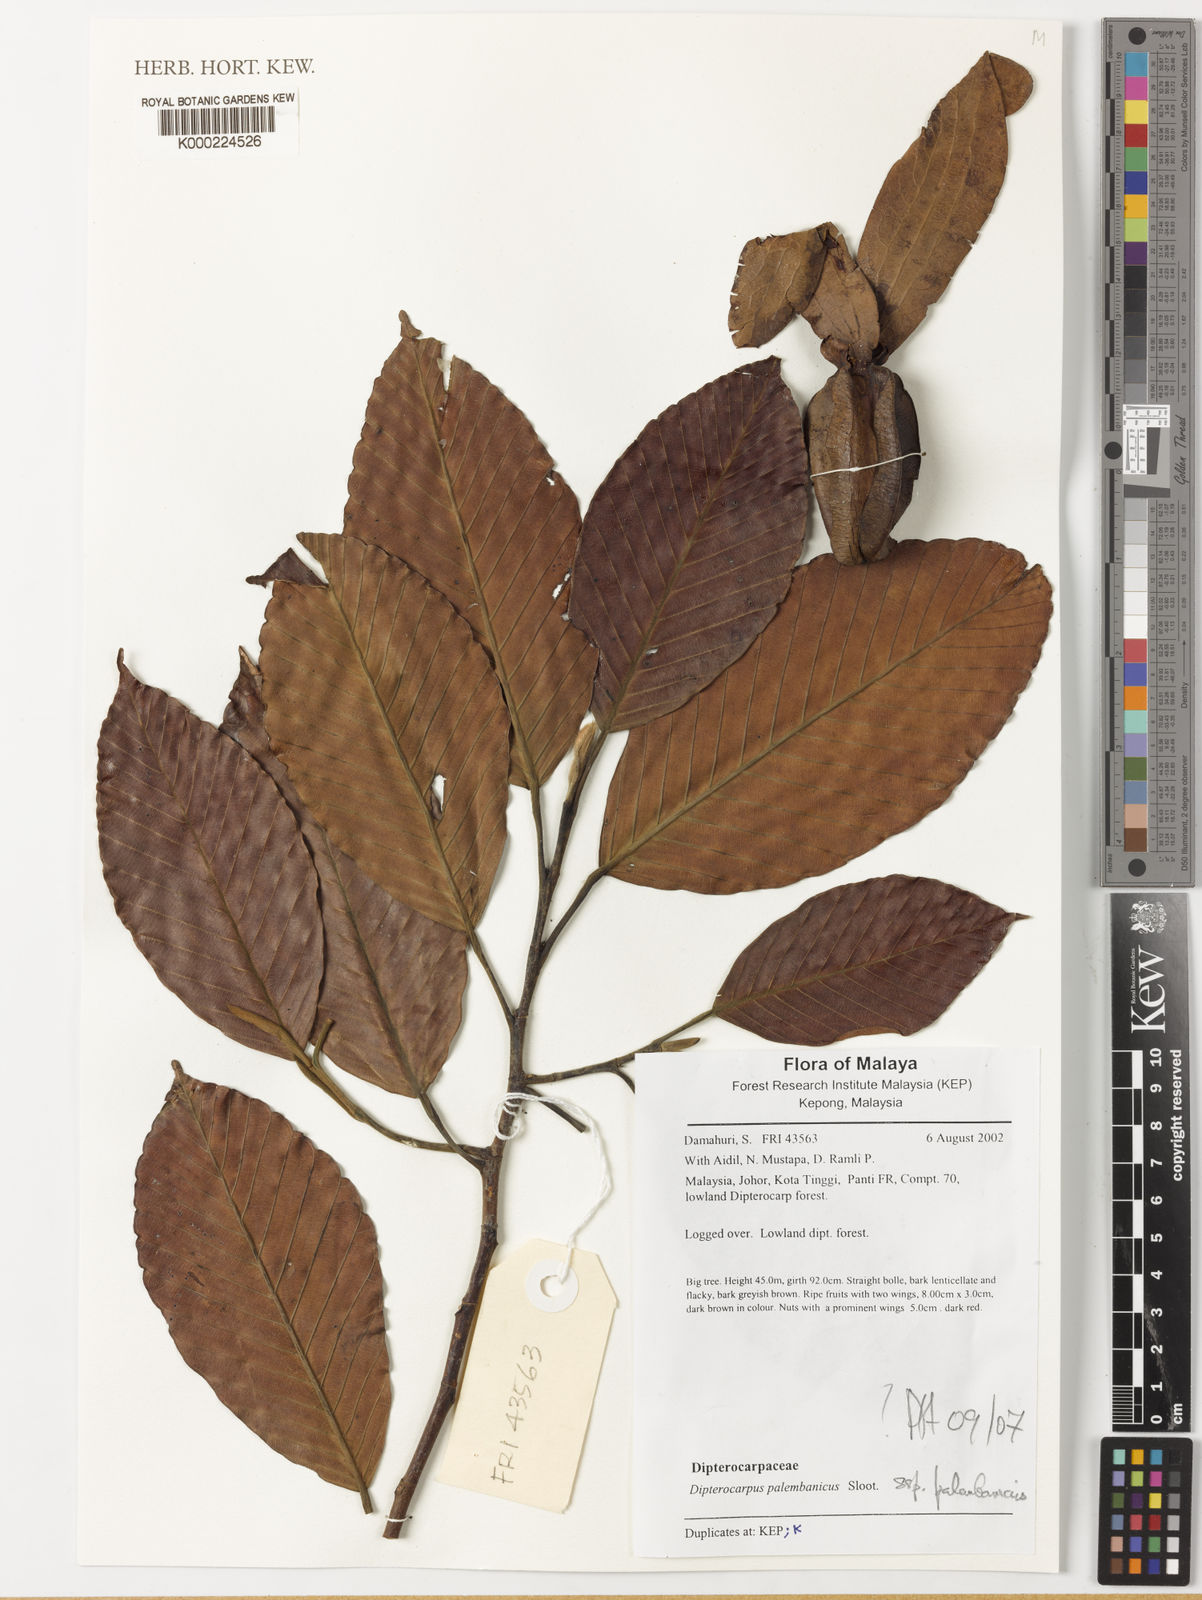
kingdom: Plantae
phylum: Tracheophyta
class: Magnoliopsida
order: Malvales
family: Dipterocarpaceae
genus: Dipterocarpus
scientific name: Dipterocarpus palembanicus
